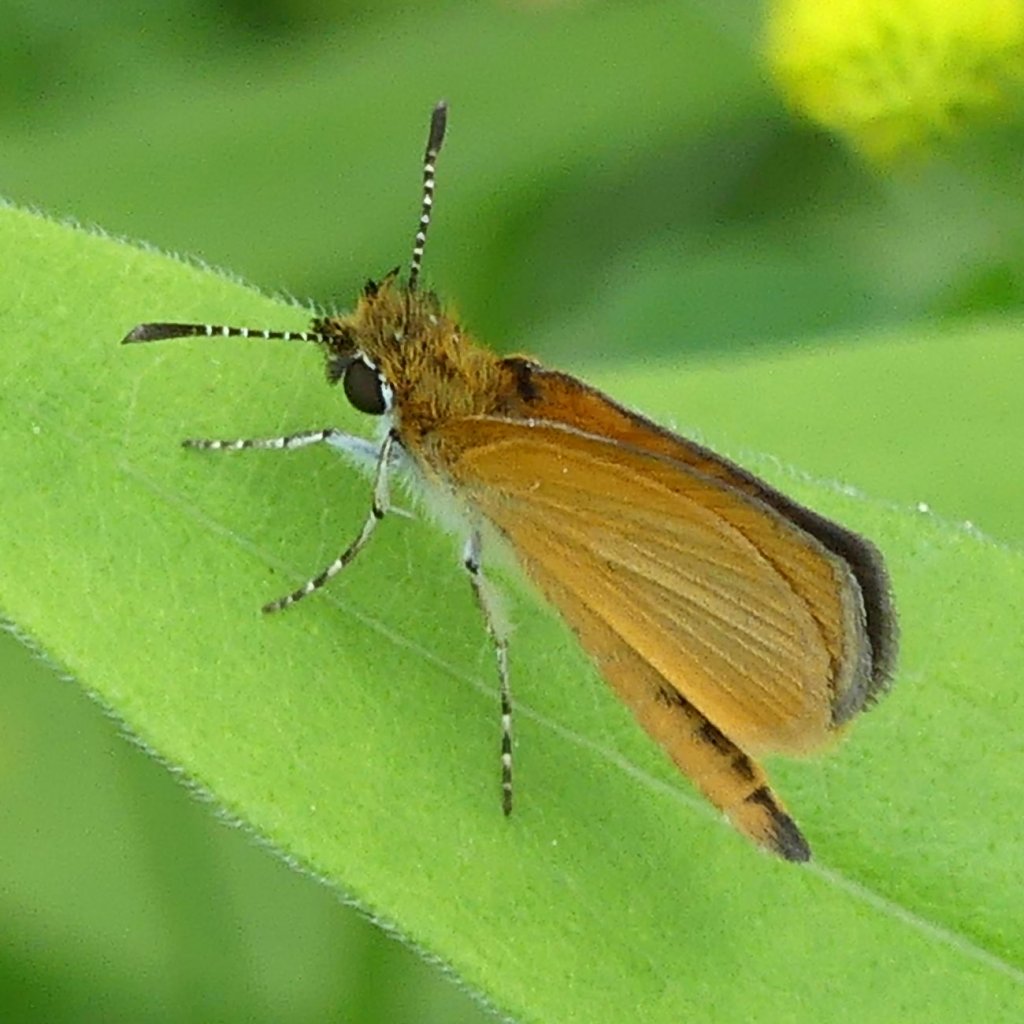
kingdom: Animalia
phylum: Arthropoda
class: Insecta
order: Lepidoptera
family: Hesperiidae
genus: Ancyloxypha
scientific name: Ancyloxypha numitor
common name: Least Skipper
